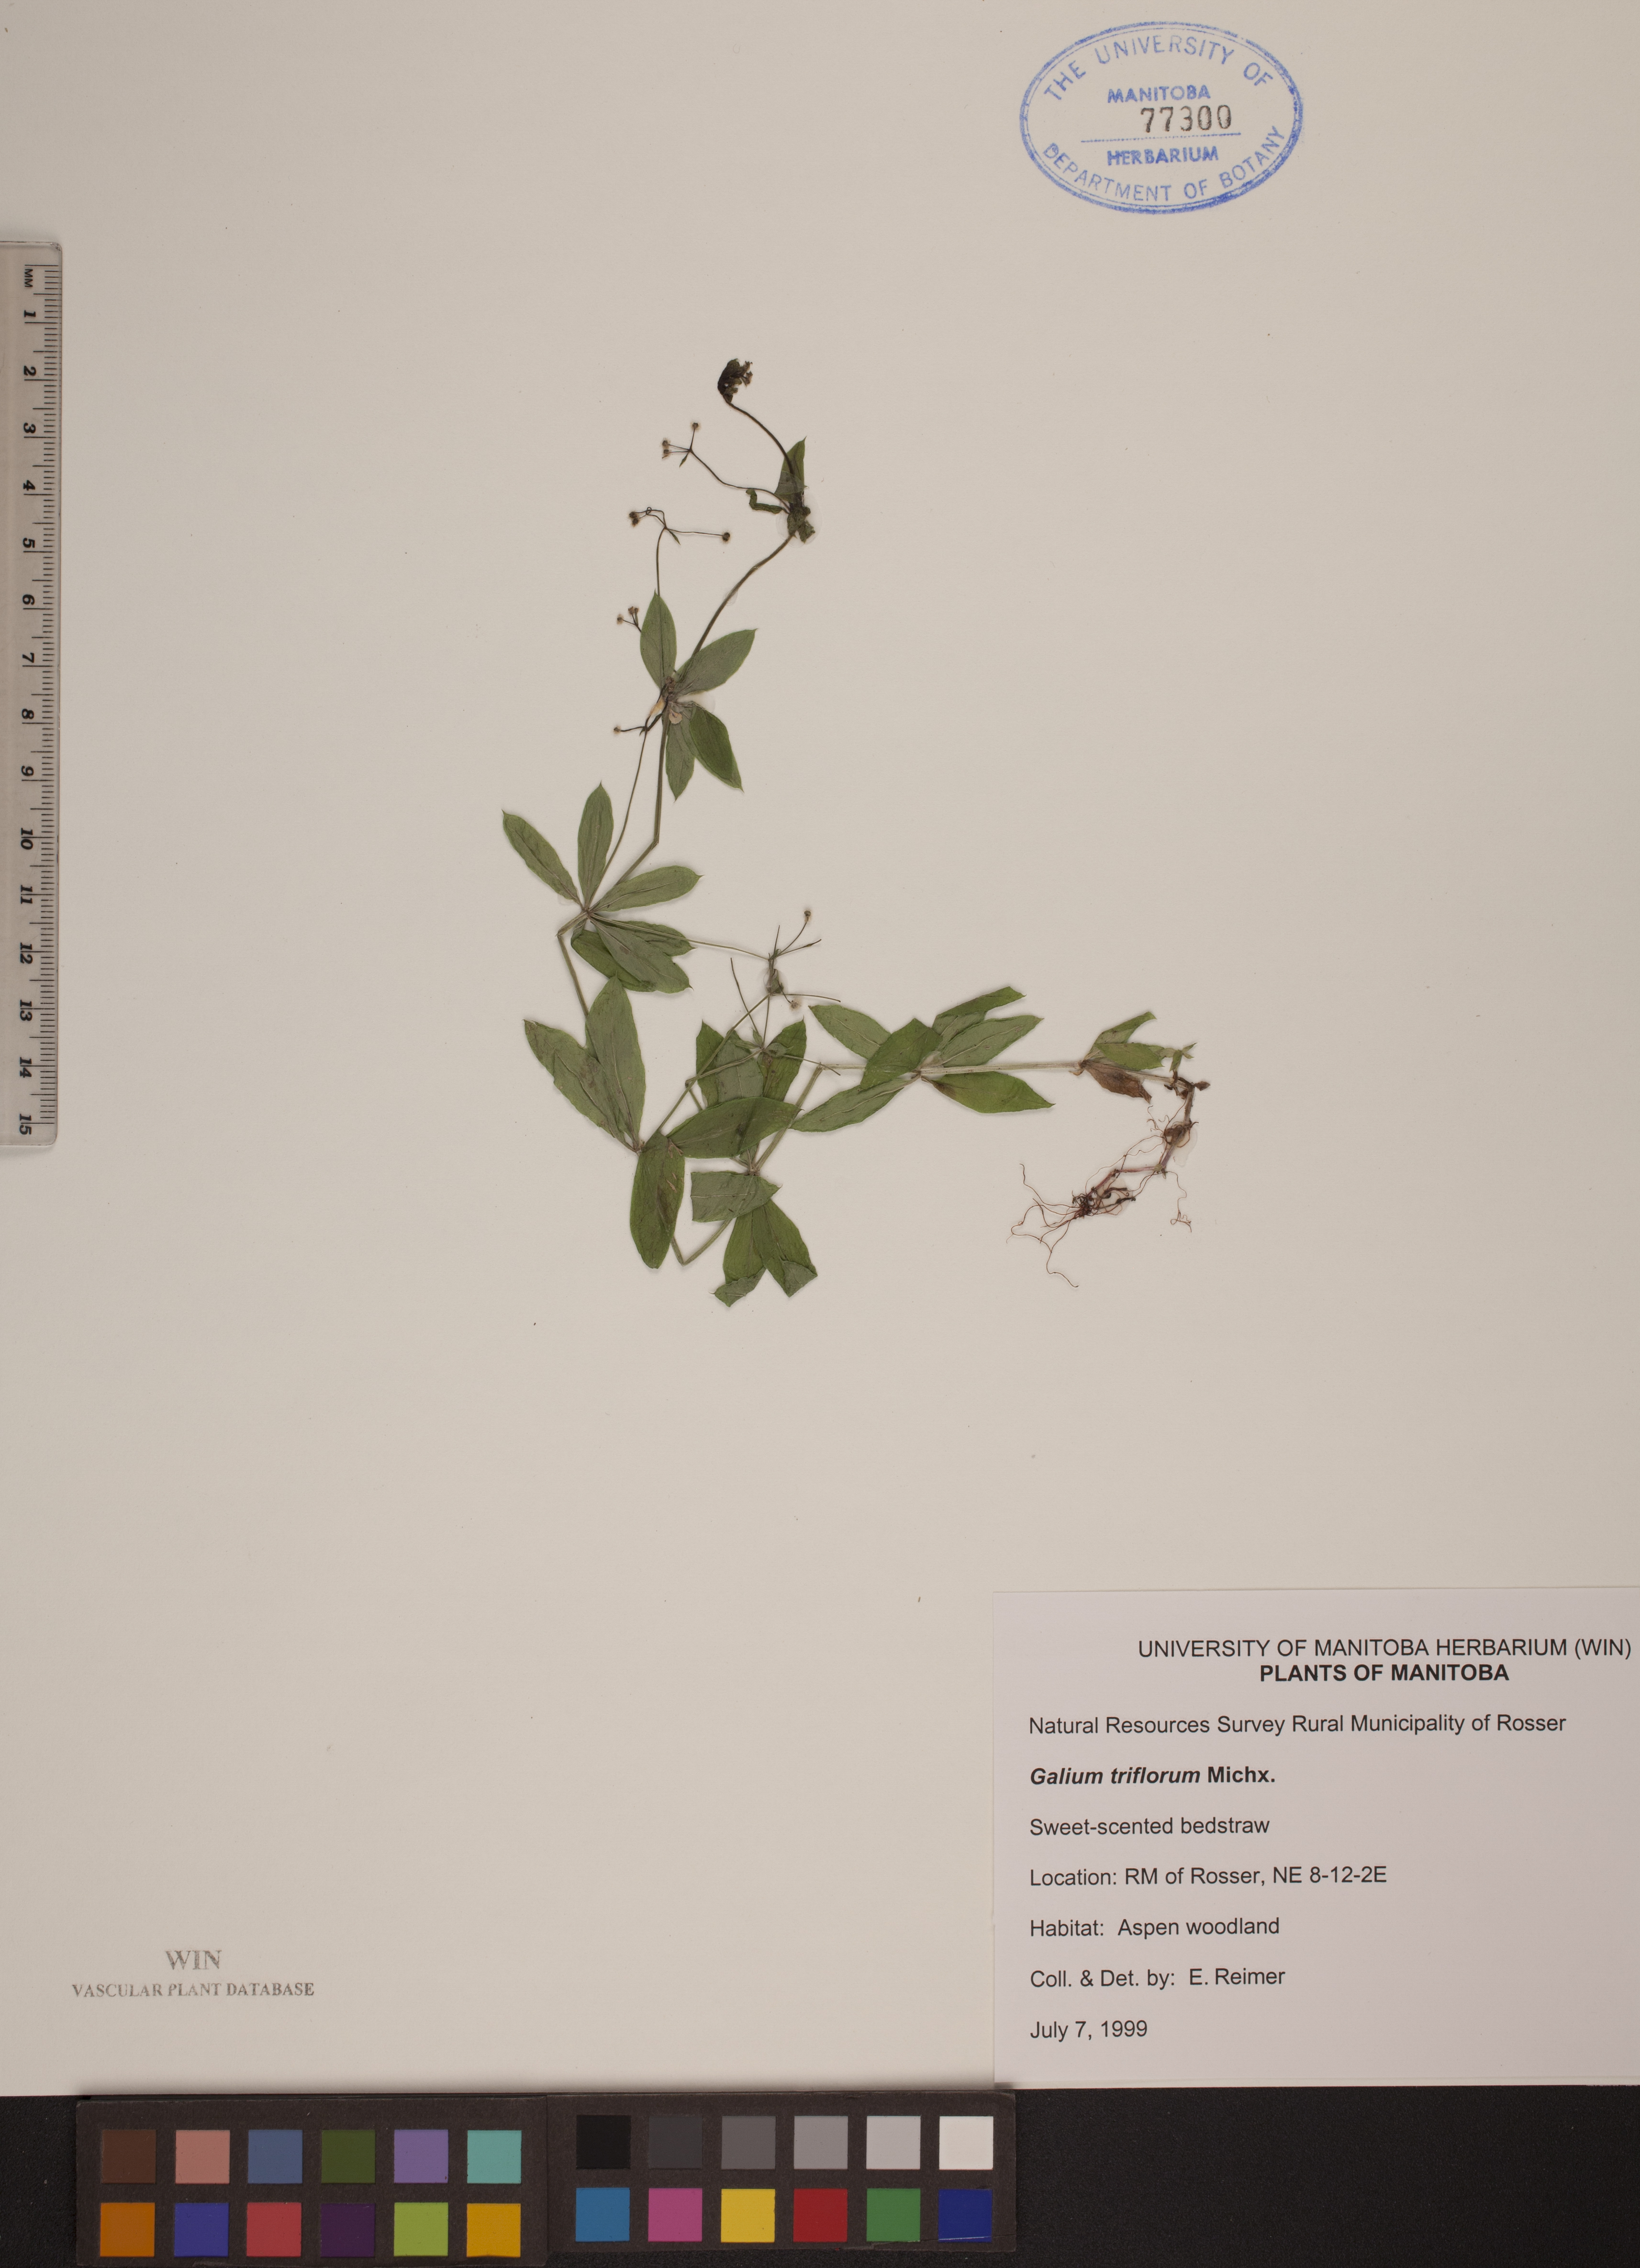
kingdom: Plantae
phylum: Tracheophyta
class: Magnoliopsida
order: Gentianales
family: Rubiaceae
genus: Galium
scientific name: Galium triflorum
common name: Fragrant bedstraw
